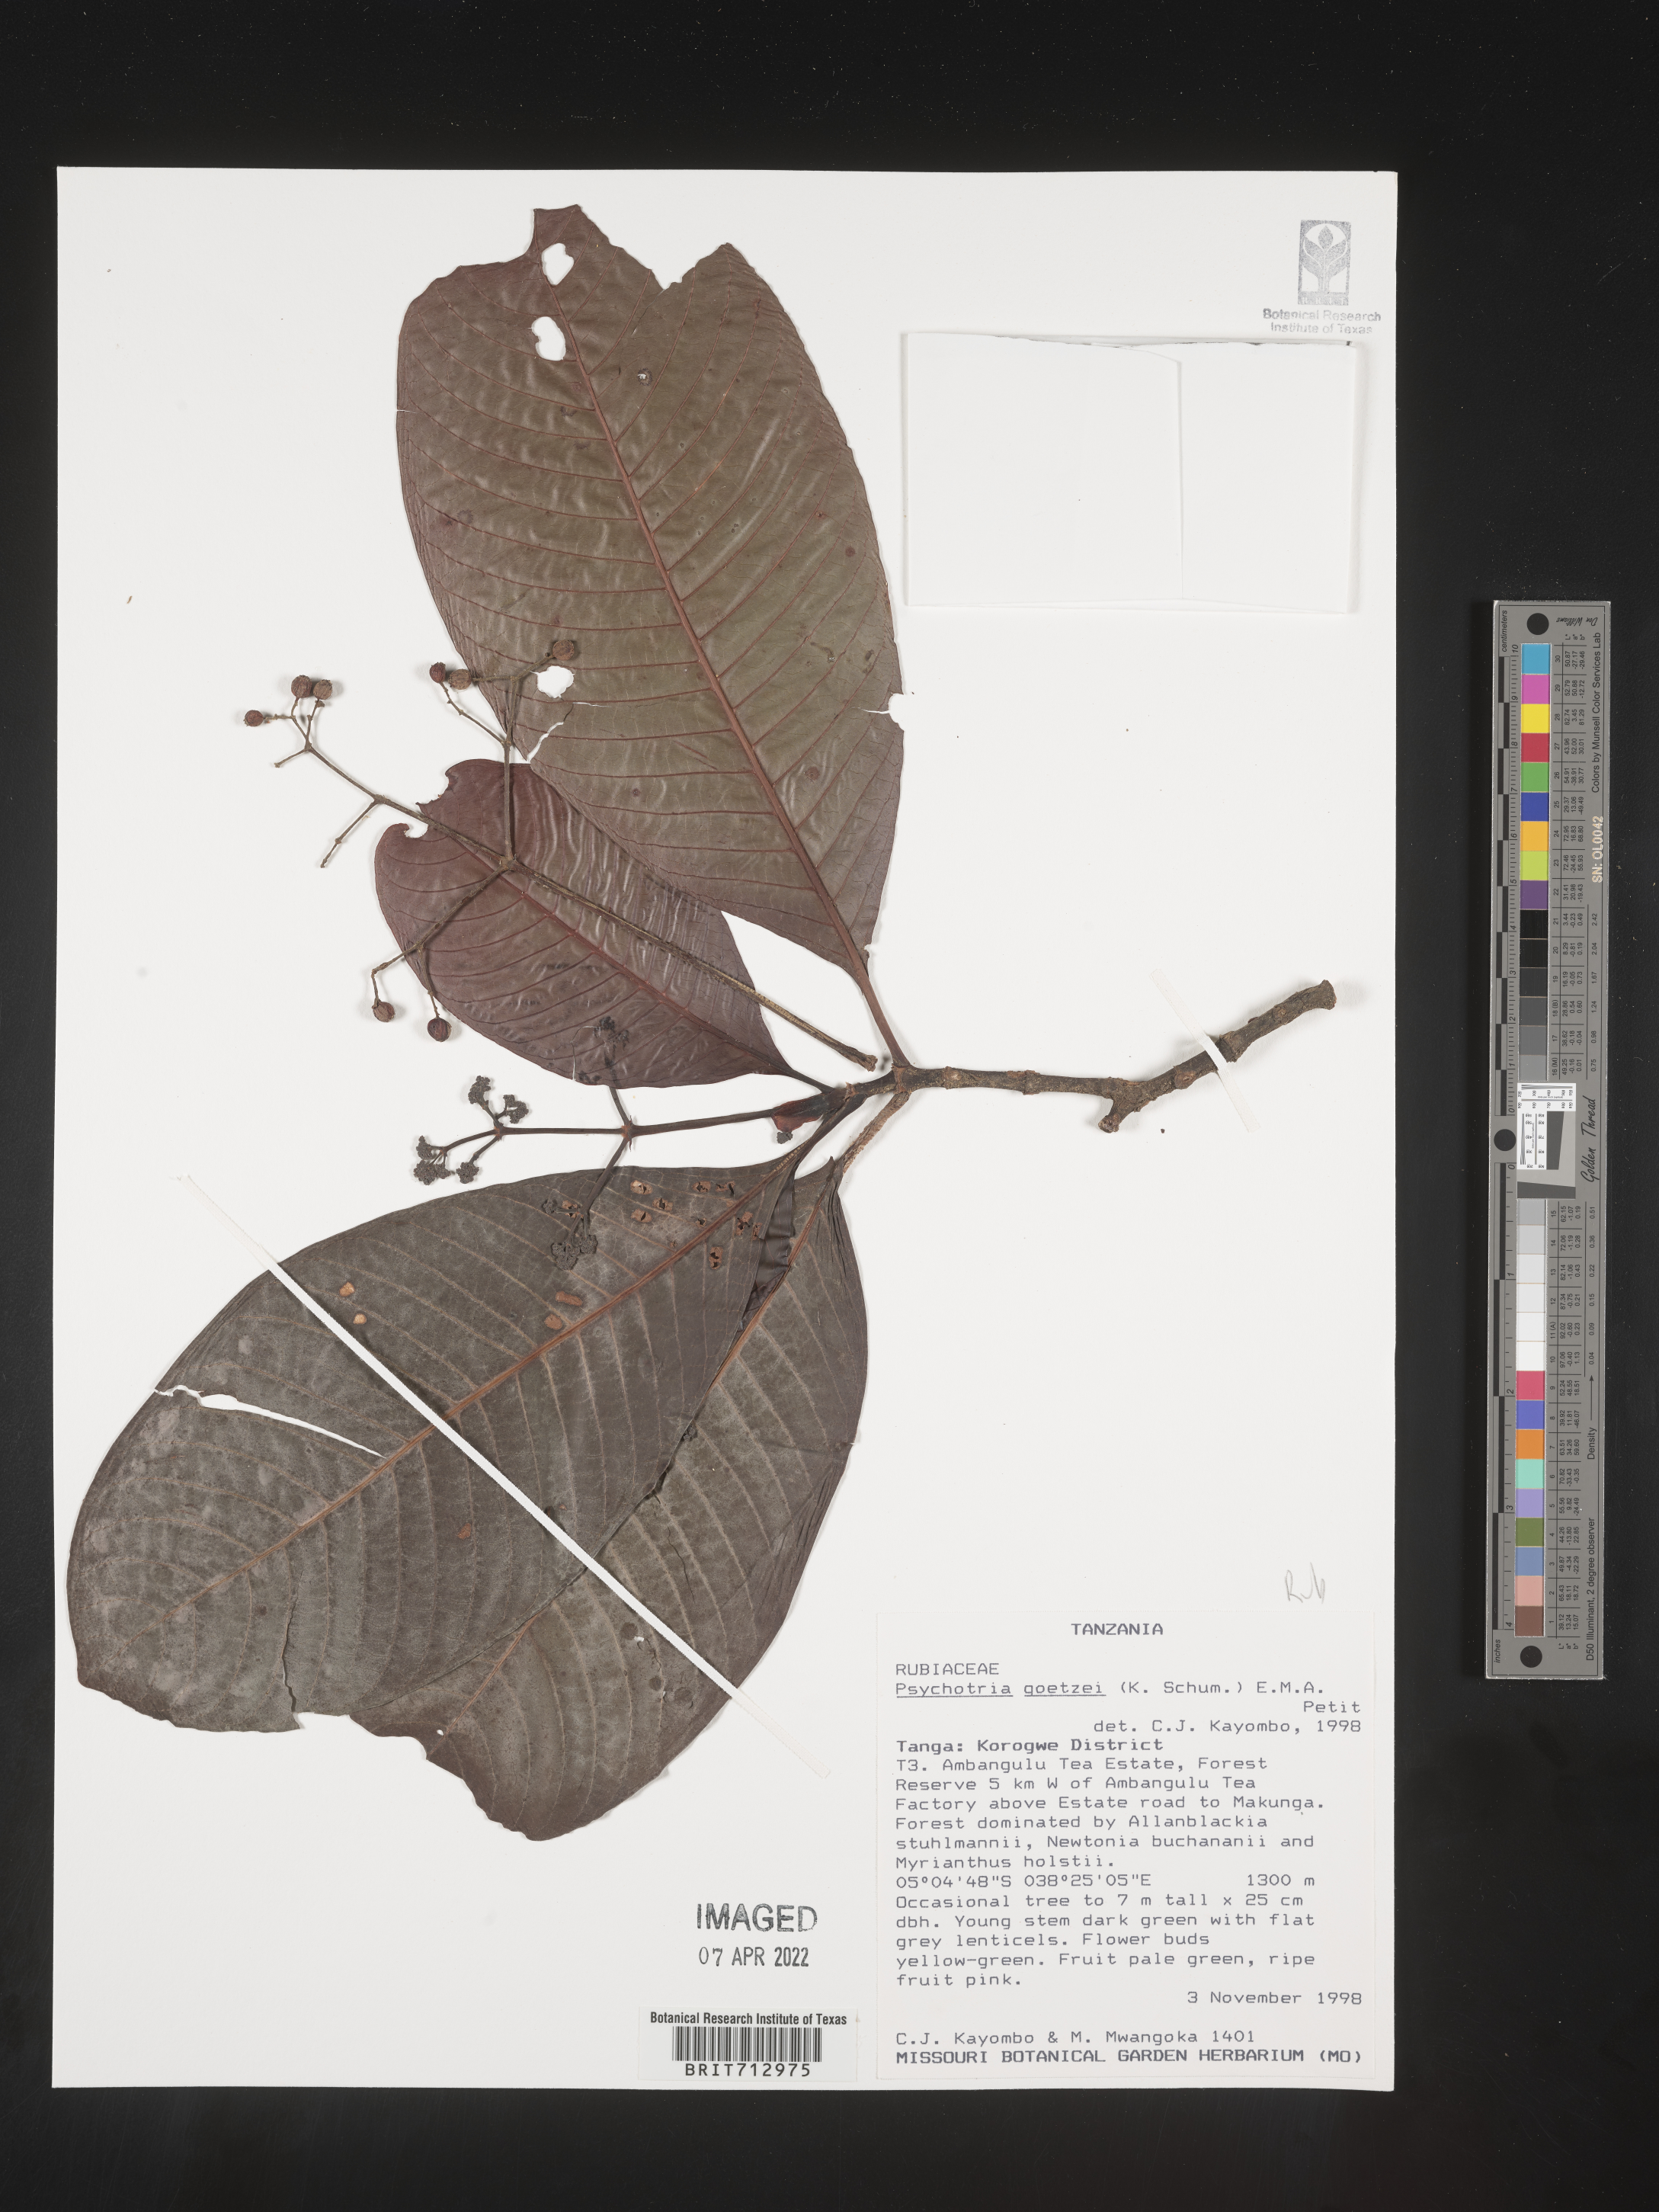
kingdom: Plantae
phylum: Tracheophyta
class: Magnoliopsida
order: Gentianales
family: Rubiaceae
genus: Psychotria
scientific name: Psychotria
